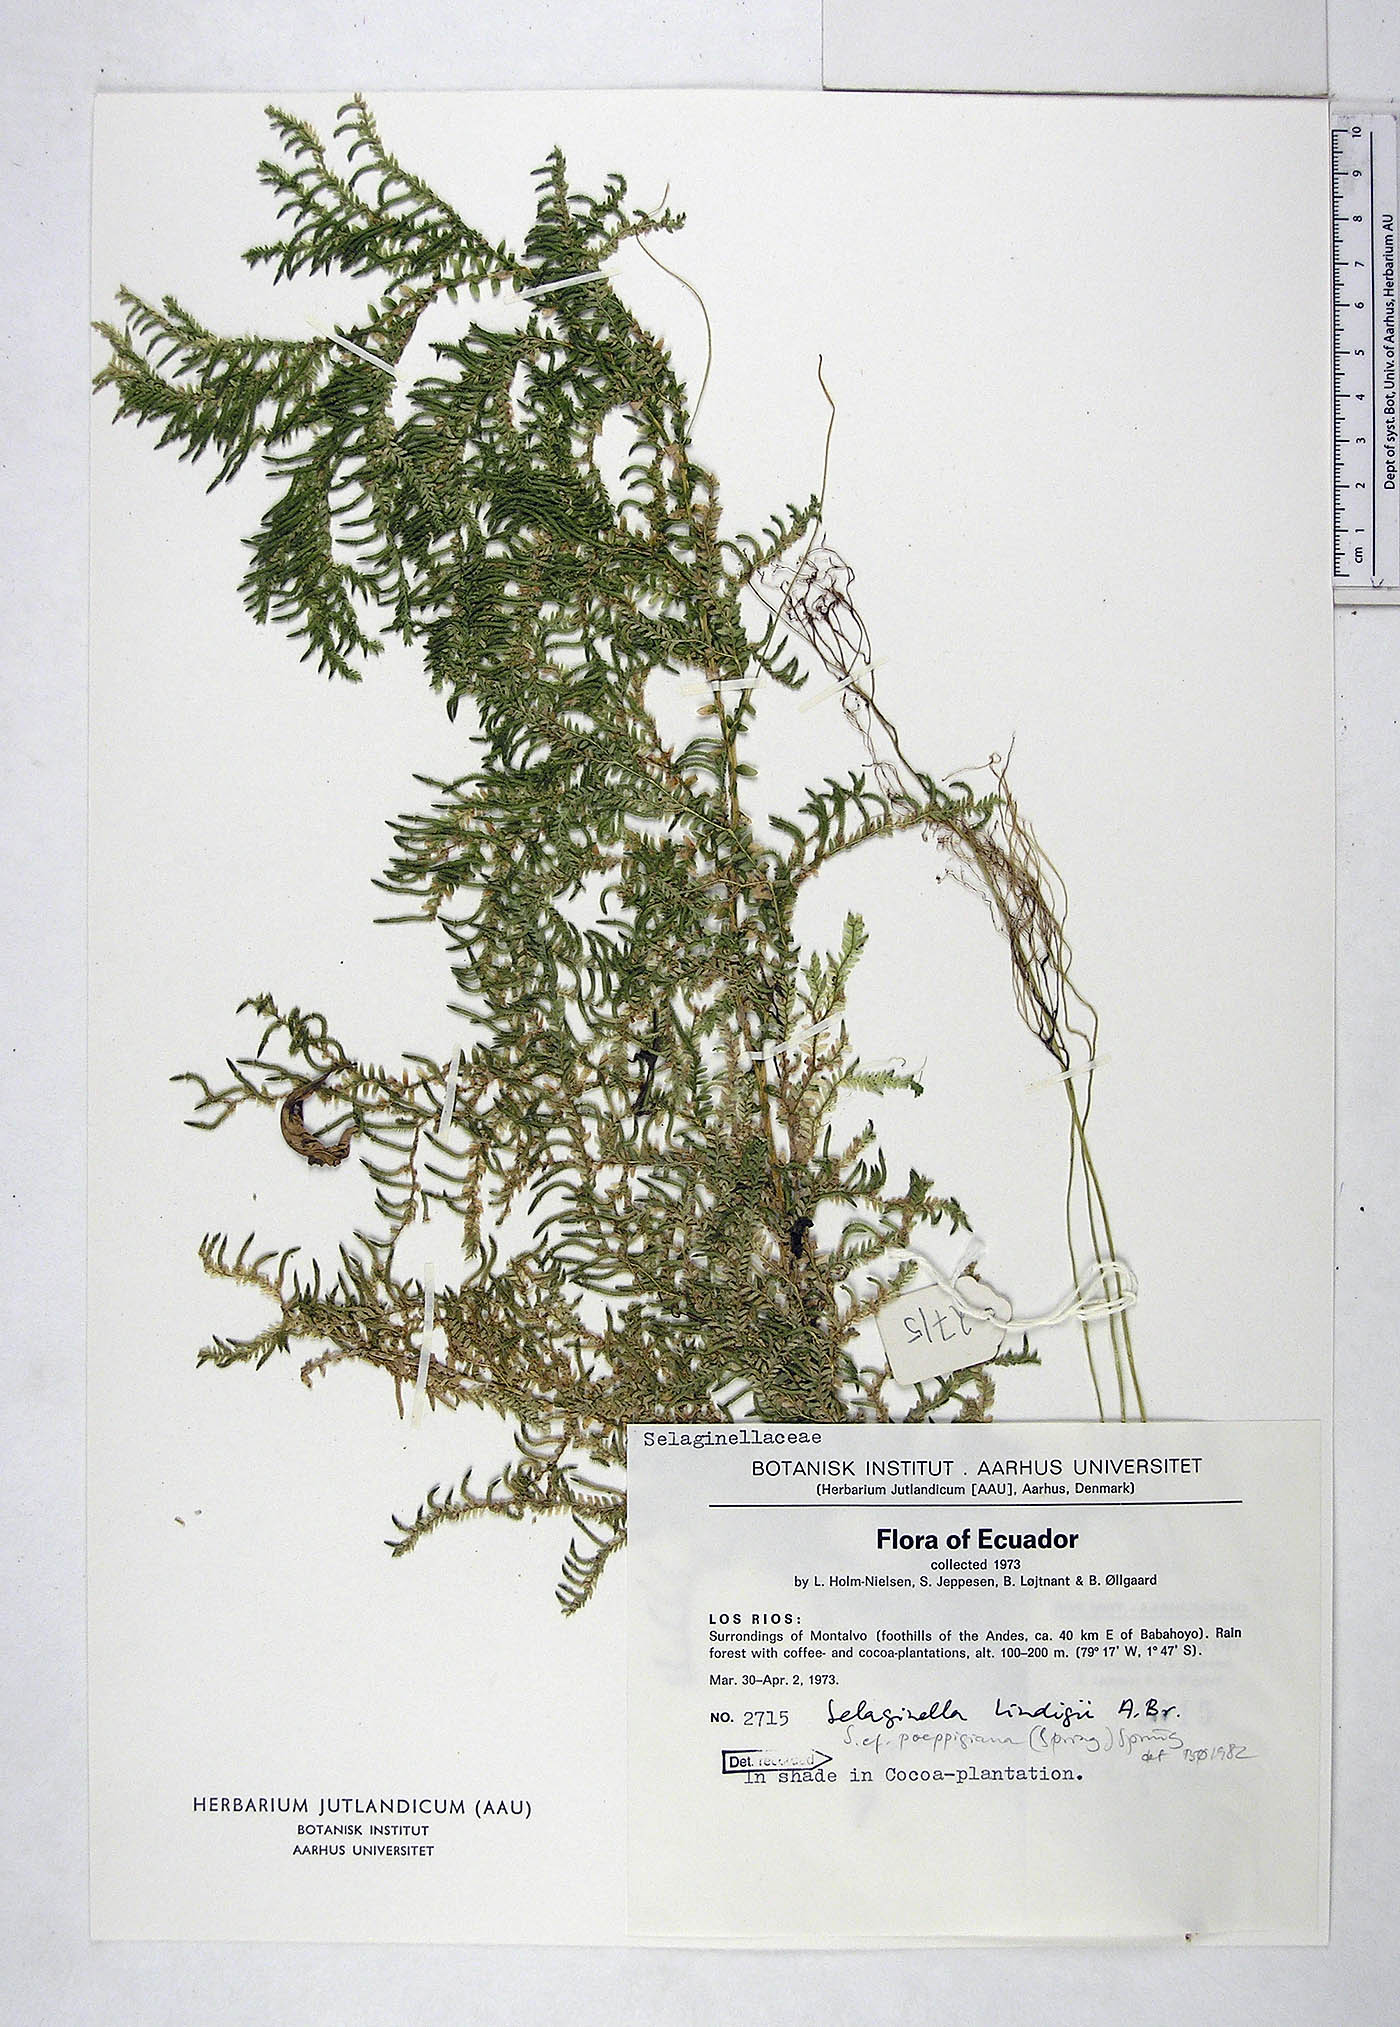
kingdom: Plantae
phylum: Tracheophyta
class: Lycopodiopsida
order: Selaginellales
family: Selaginellaceae
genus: Selaginella
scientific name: Selaginella poeppigiana
